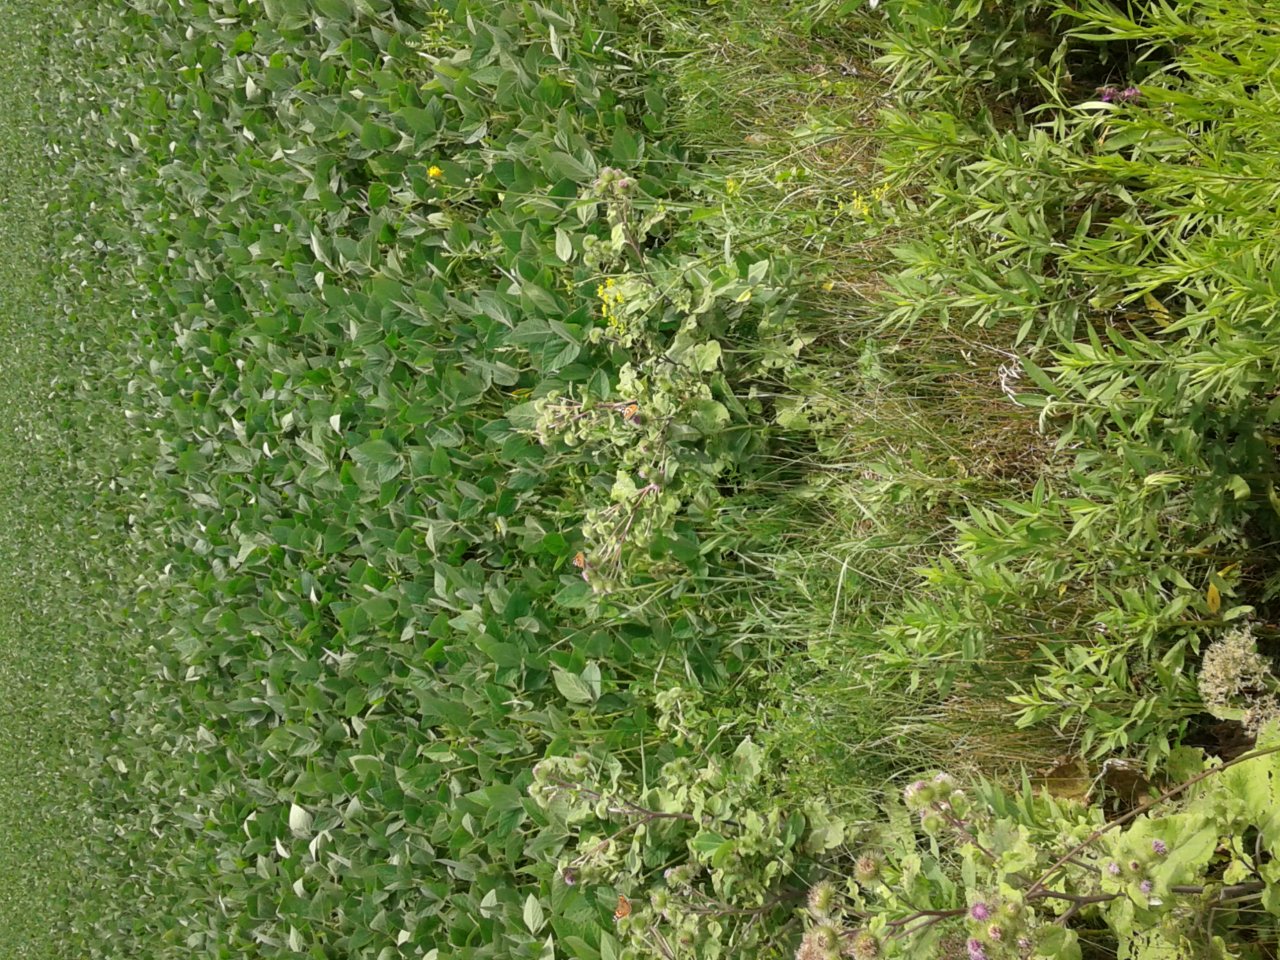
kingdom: Animalia
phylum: Arthropoda
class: Insecta
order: Lepidoptera
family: Nymphalidae
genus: Vanessa
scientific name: Vanessa cardui
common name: Painted Lady
